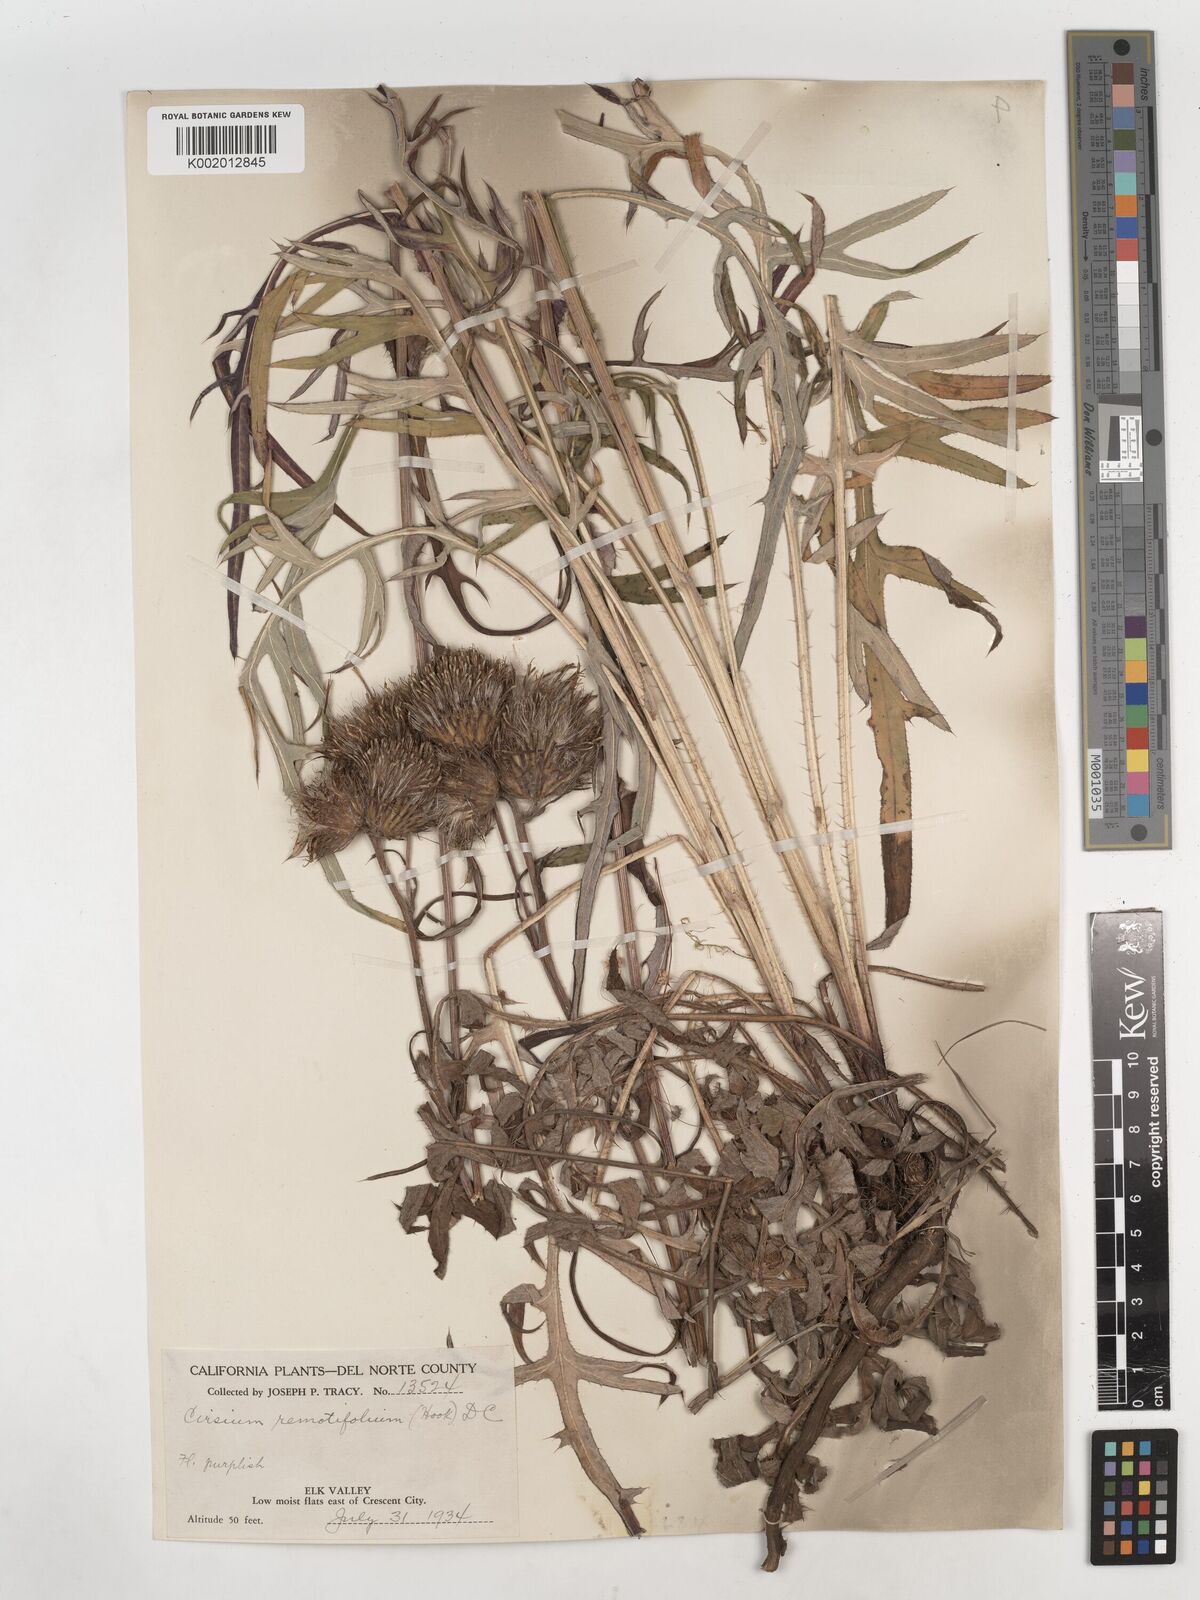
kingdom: Plantae
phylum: Tracheophyta
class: Magnoliopsida
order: Asterales
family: Asteraceae
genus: Cirsium
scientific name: Cirsium remotifolium
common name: Remote-leaf thistle
